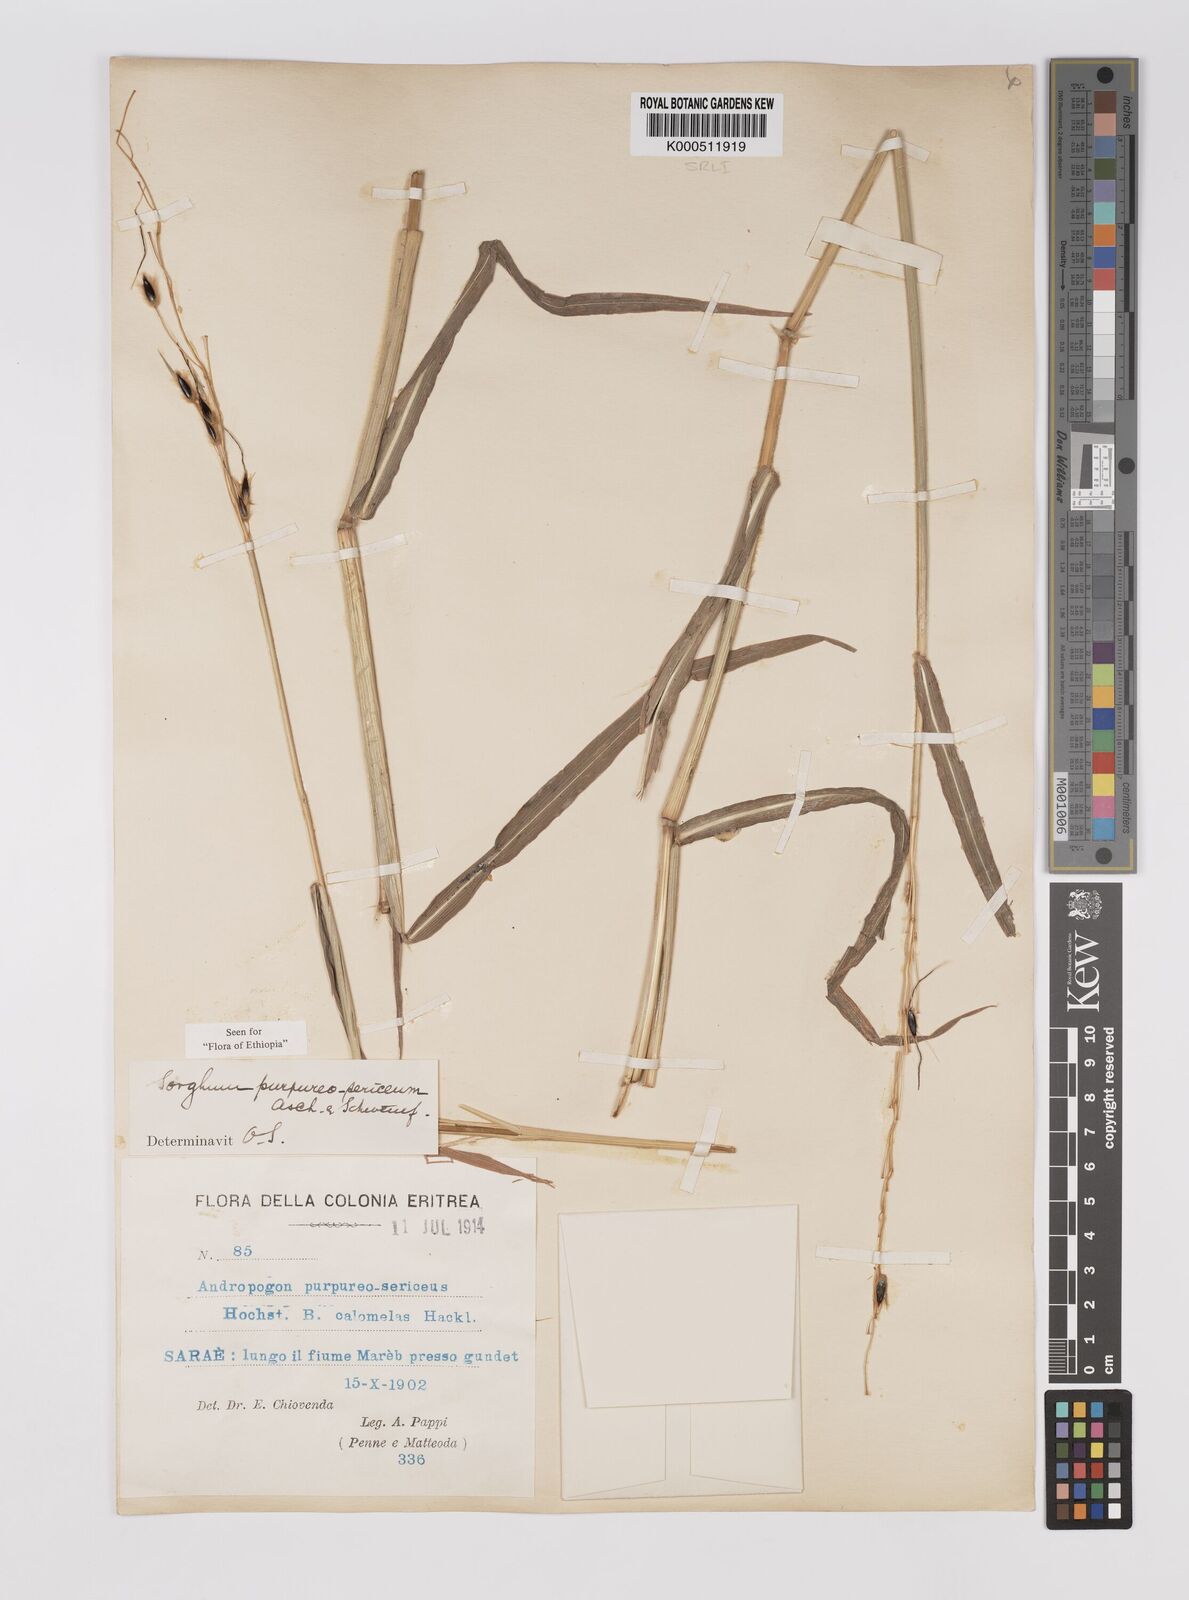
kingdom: Plantae
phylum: Tracheophyta
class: Liliopsida
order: Poales
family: Poaceae
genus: Sarga
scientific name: Sarga purpureosericea
